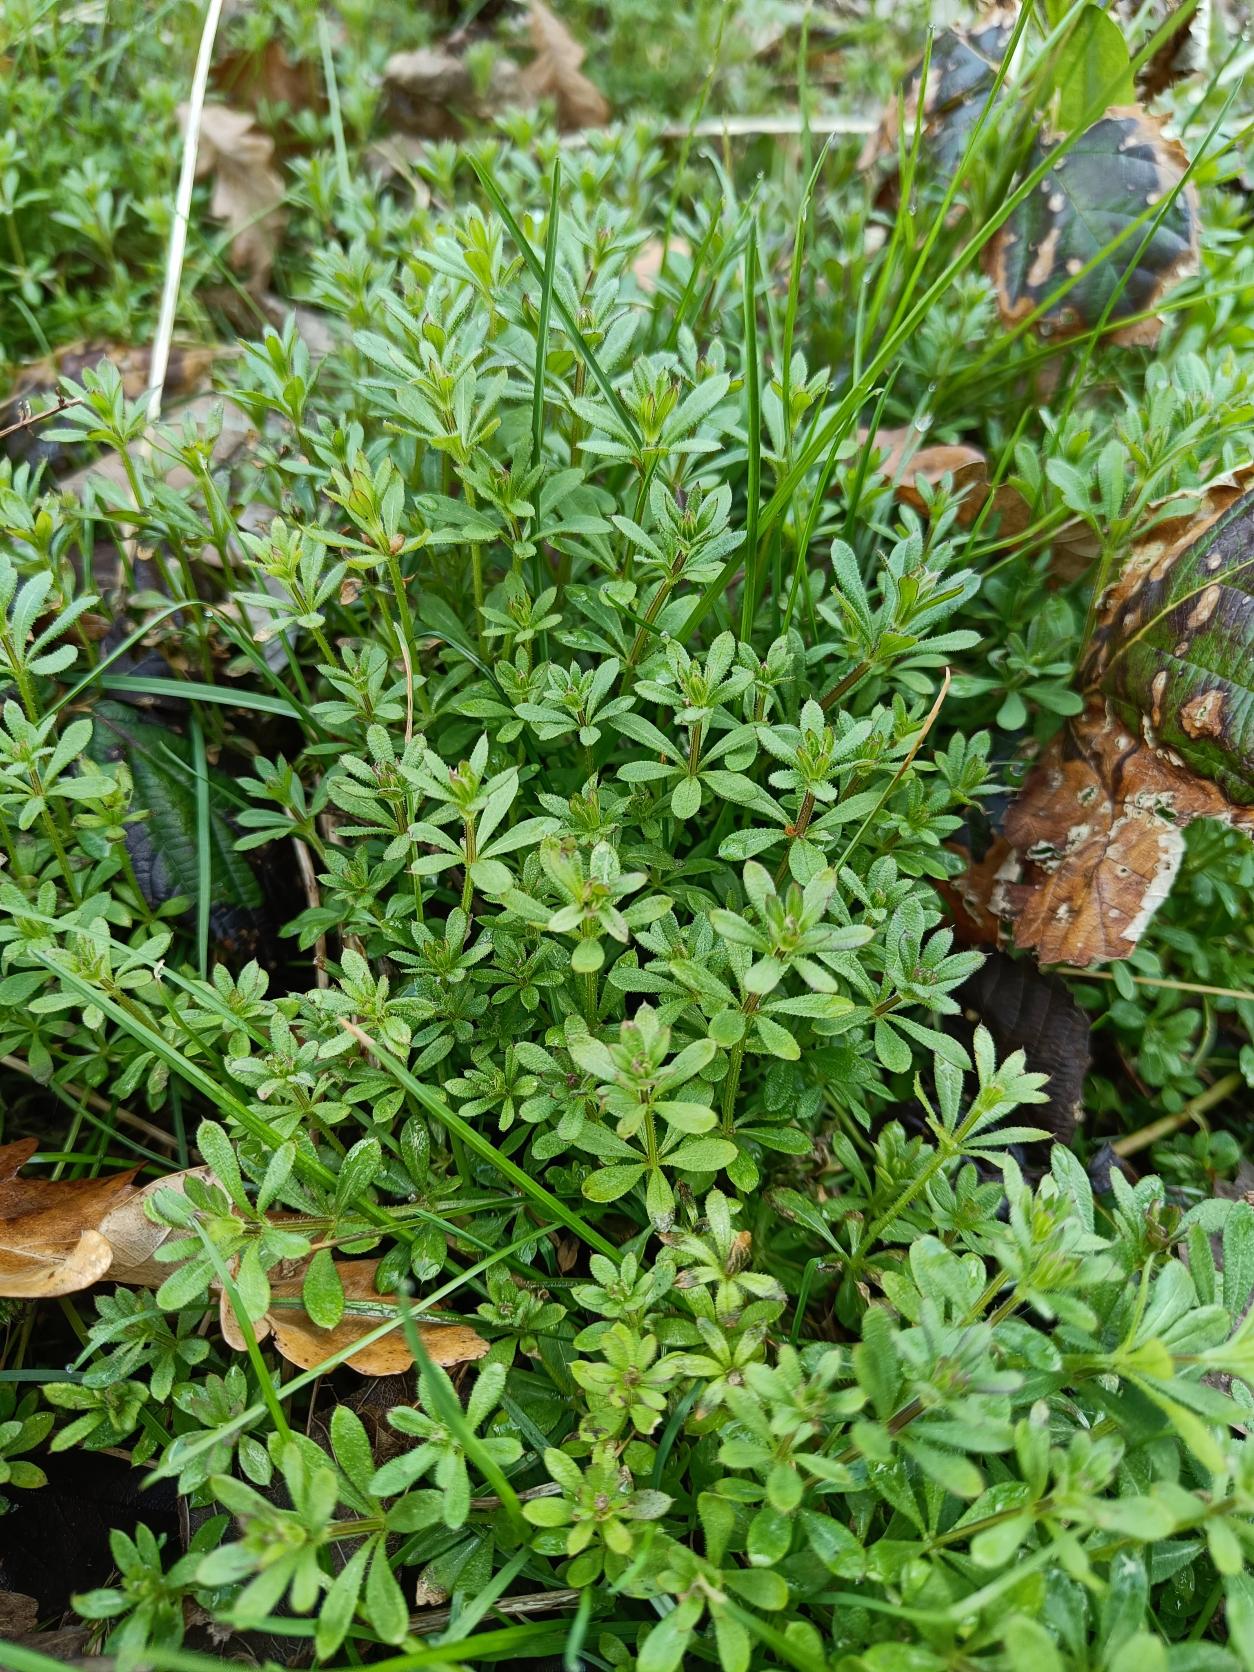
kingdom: Plantae
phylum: Tracheophyta
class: Magnoliopsida
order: Gentianales
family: Rubiaceae
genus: Galium
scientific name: Galium aparine
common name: Burre-snerre
